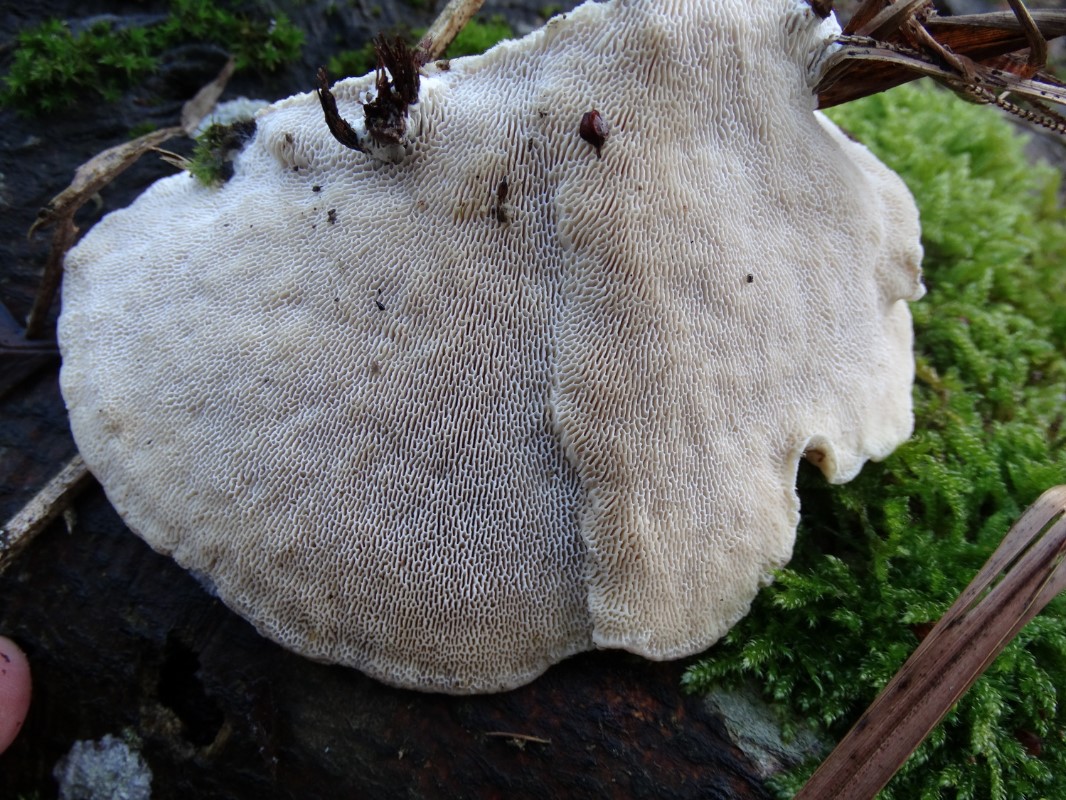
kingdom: Fungi
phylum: Basidiomycota
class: Agaricomycetes
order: Polyporales
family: Polyporaceae
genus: Trametes
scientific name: Trametes gibbosa
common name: puklet læderporesvamp
